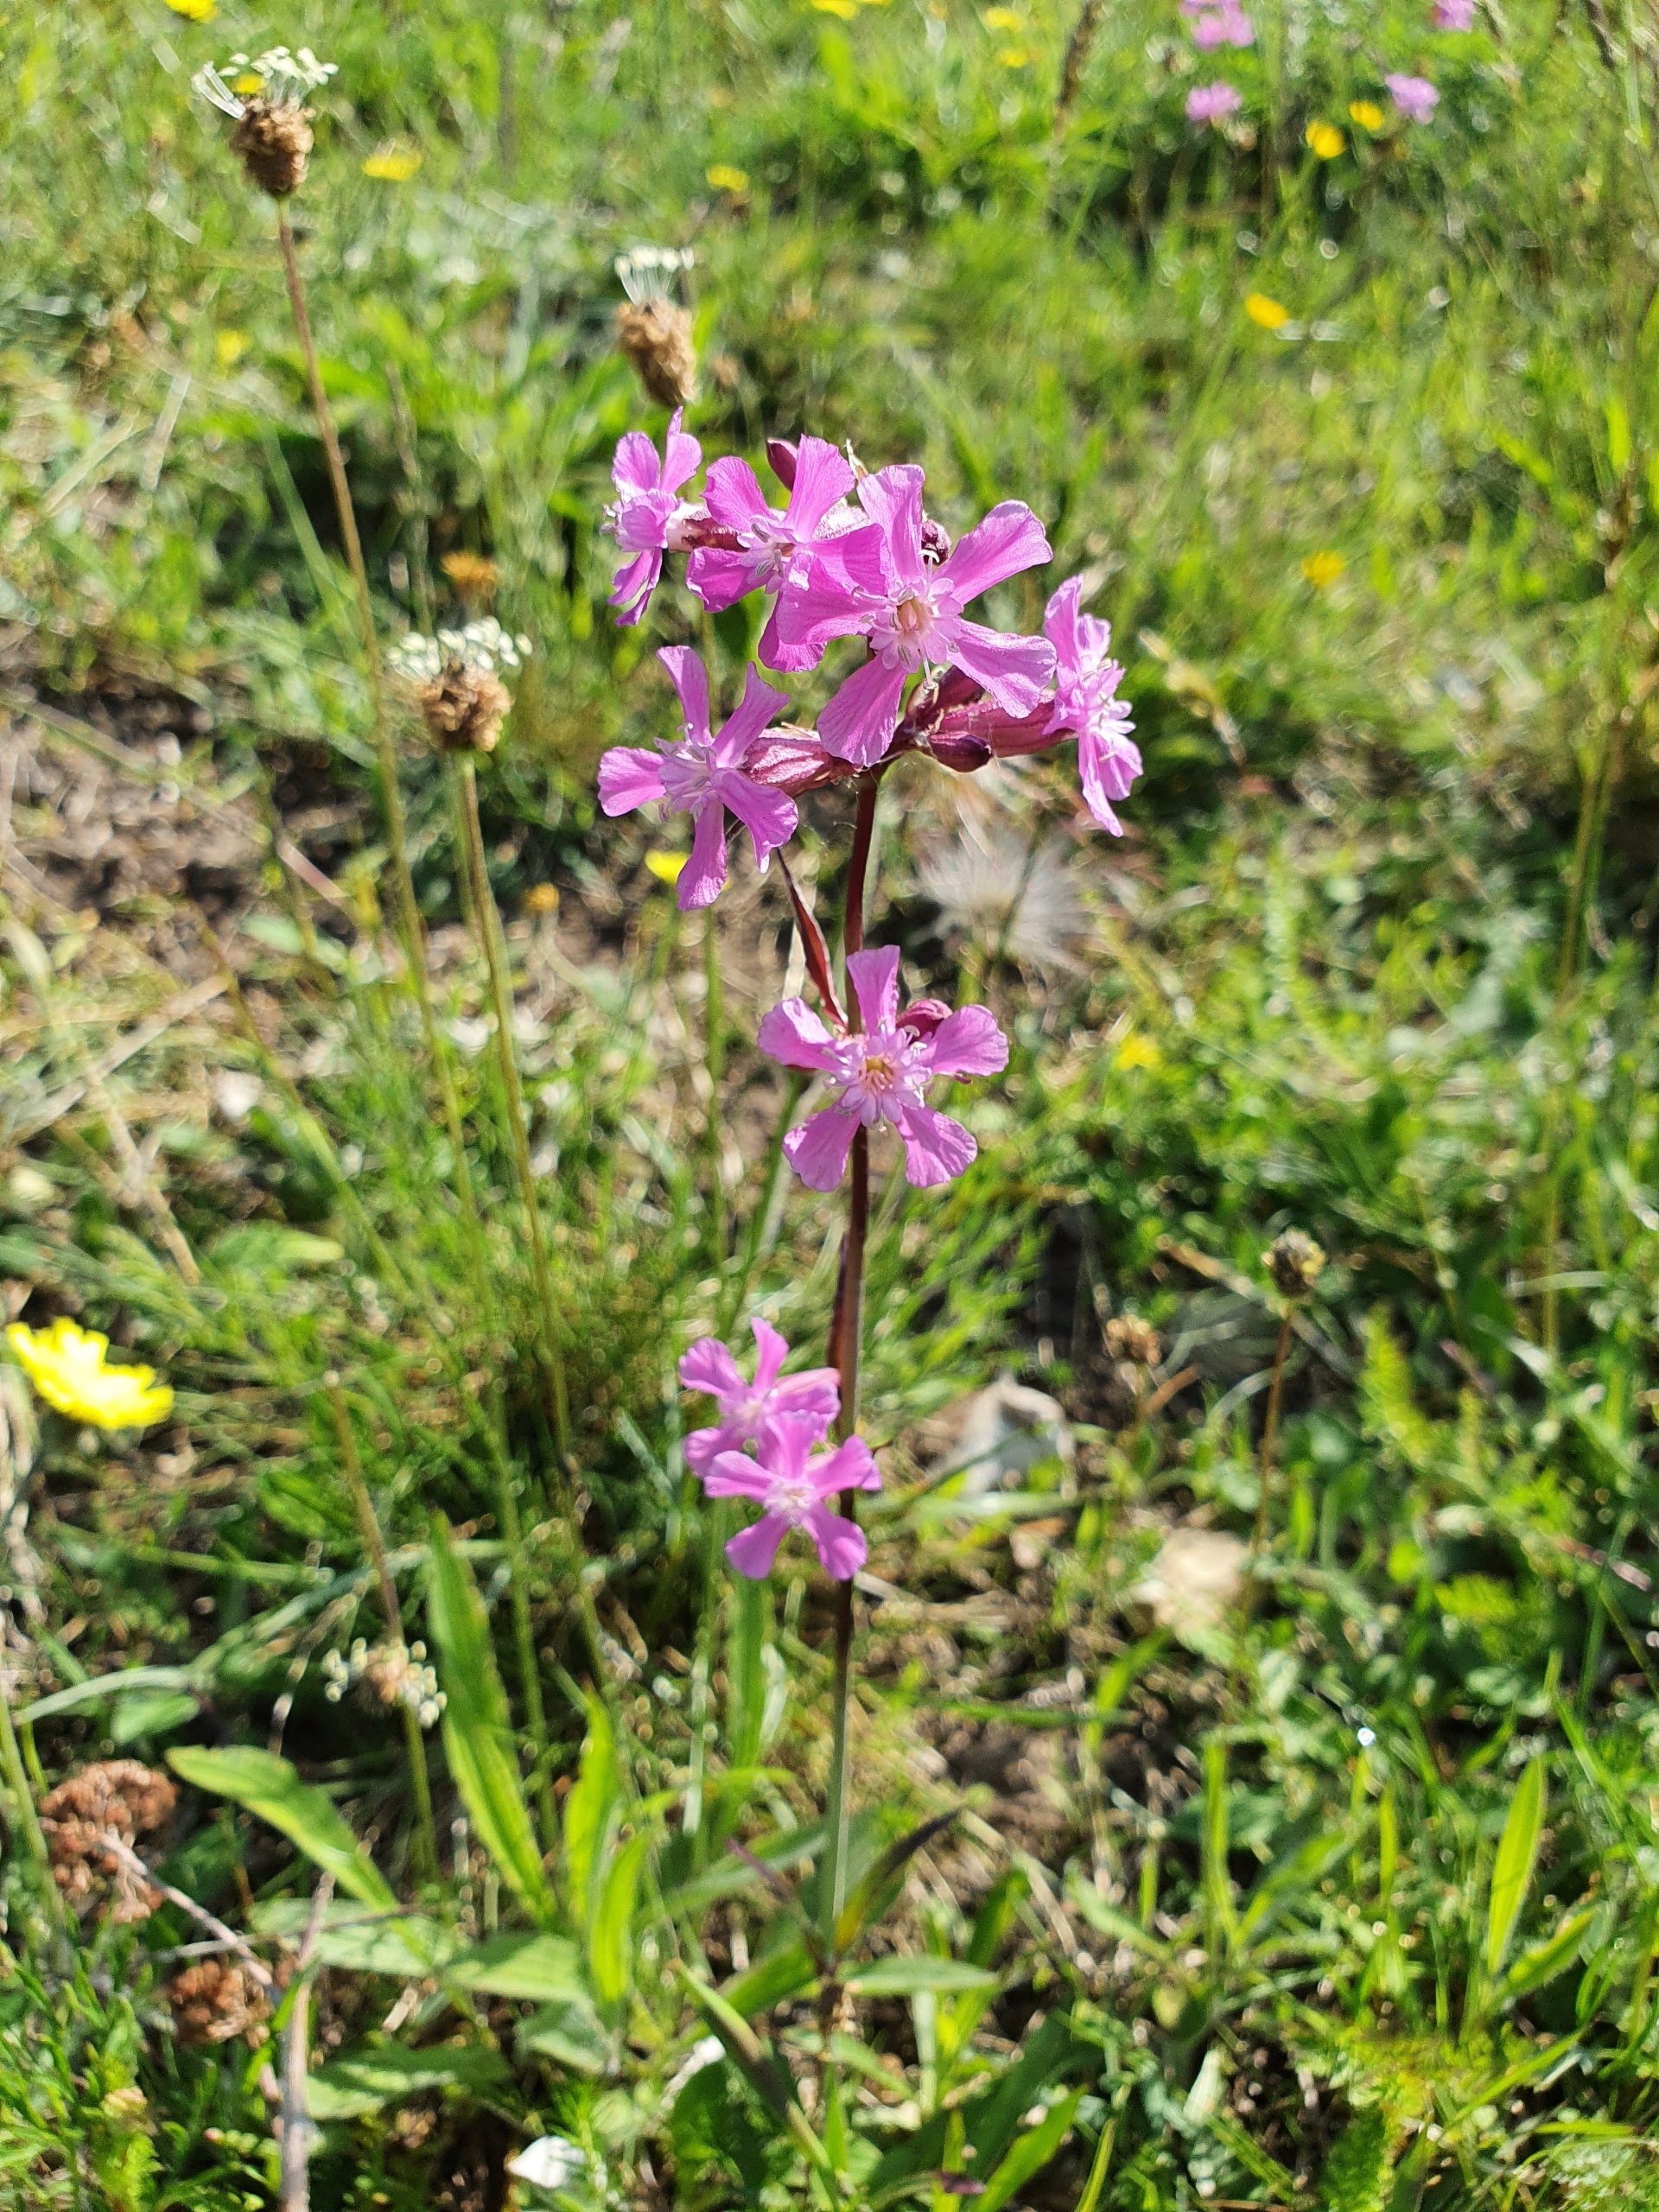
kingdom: Plantae
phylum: Tracheophyta
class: Magnoliopsida
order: Caryophyllales
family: Caryophyllaceae
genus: Viscaria
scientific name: Viscaria vulgaris
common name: Tjærenellike
